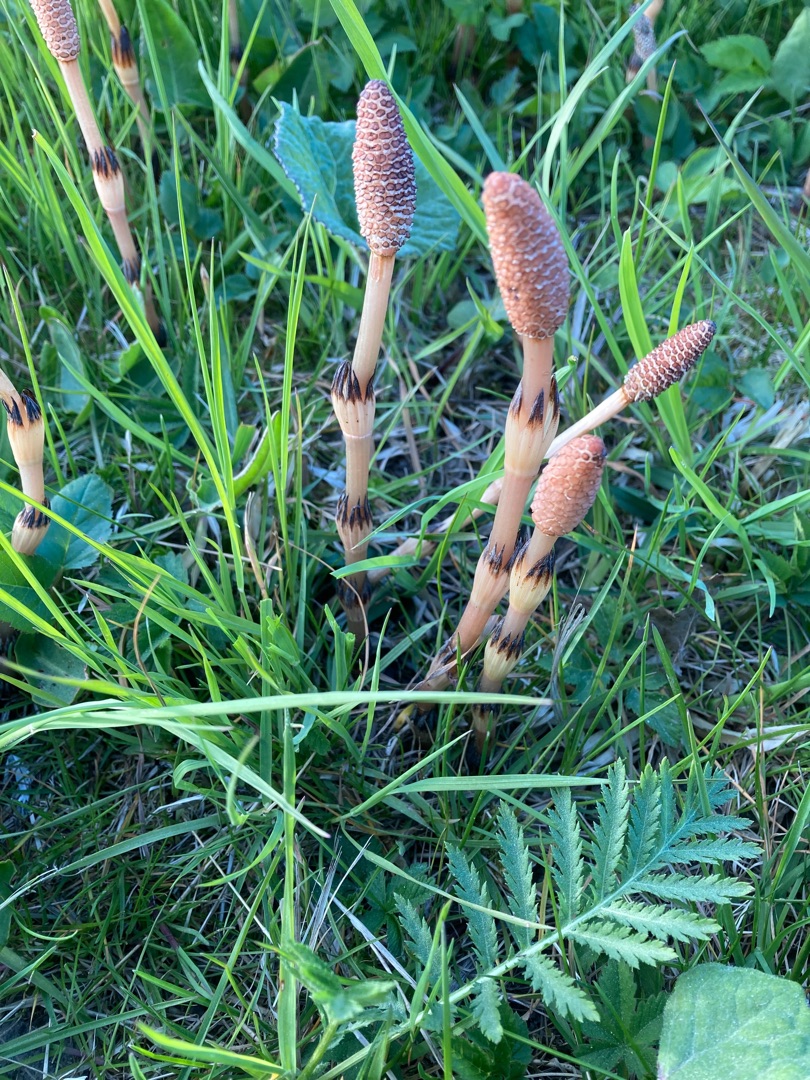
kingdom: Plantae
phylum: Tracheophyta
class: Polypodiopsida
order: Equisetales
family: Equisetaceae
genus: Equisetum
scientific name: Equisetum arvense
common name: Ager-padderok
